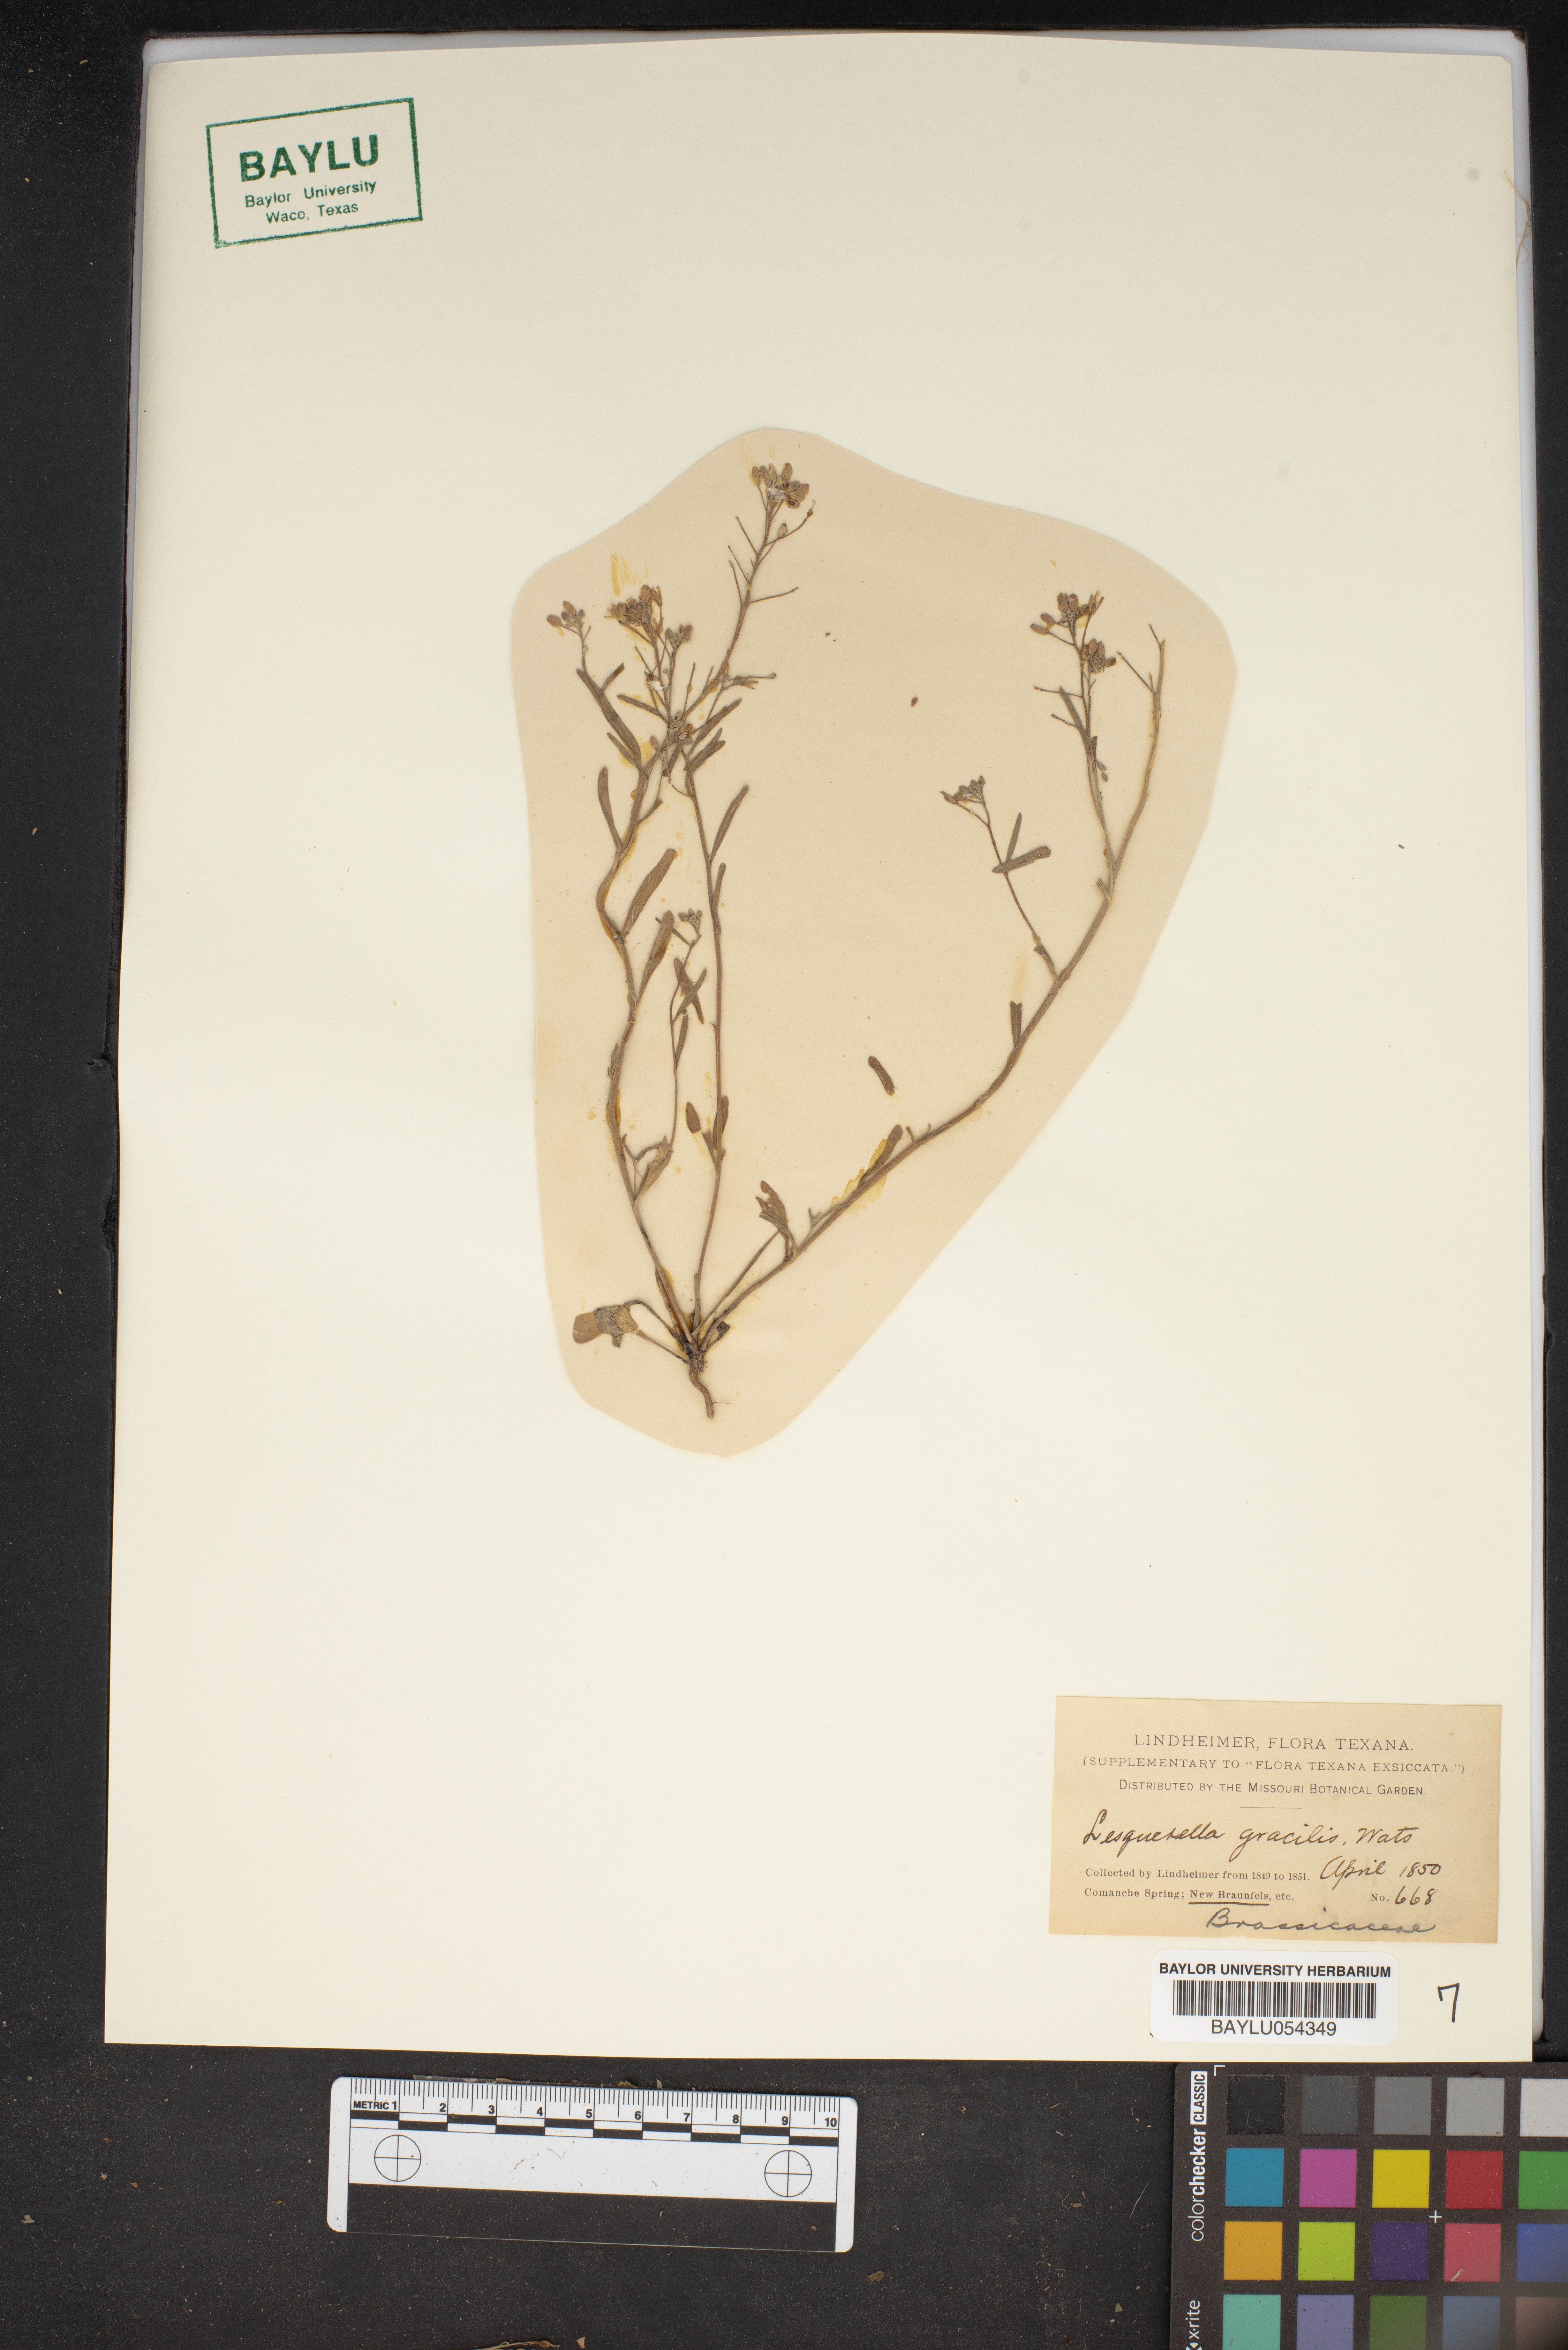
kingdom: Plantae
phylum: Tracheophyta
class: Magnoliopsida
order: Brassicales
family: Brassicaceae
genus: Physaria
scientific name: Physaria gracilis
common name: Spreading bladderpod
